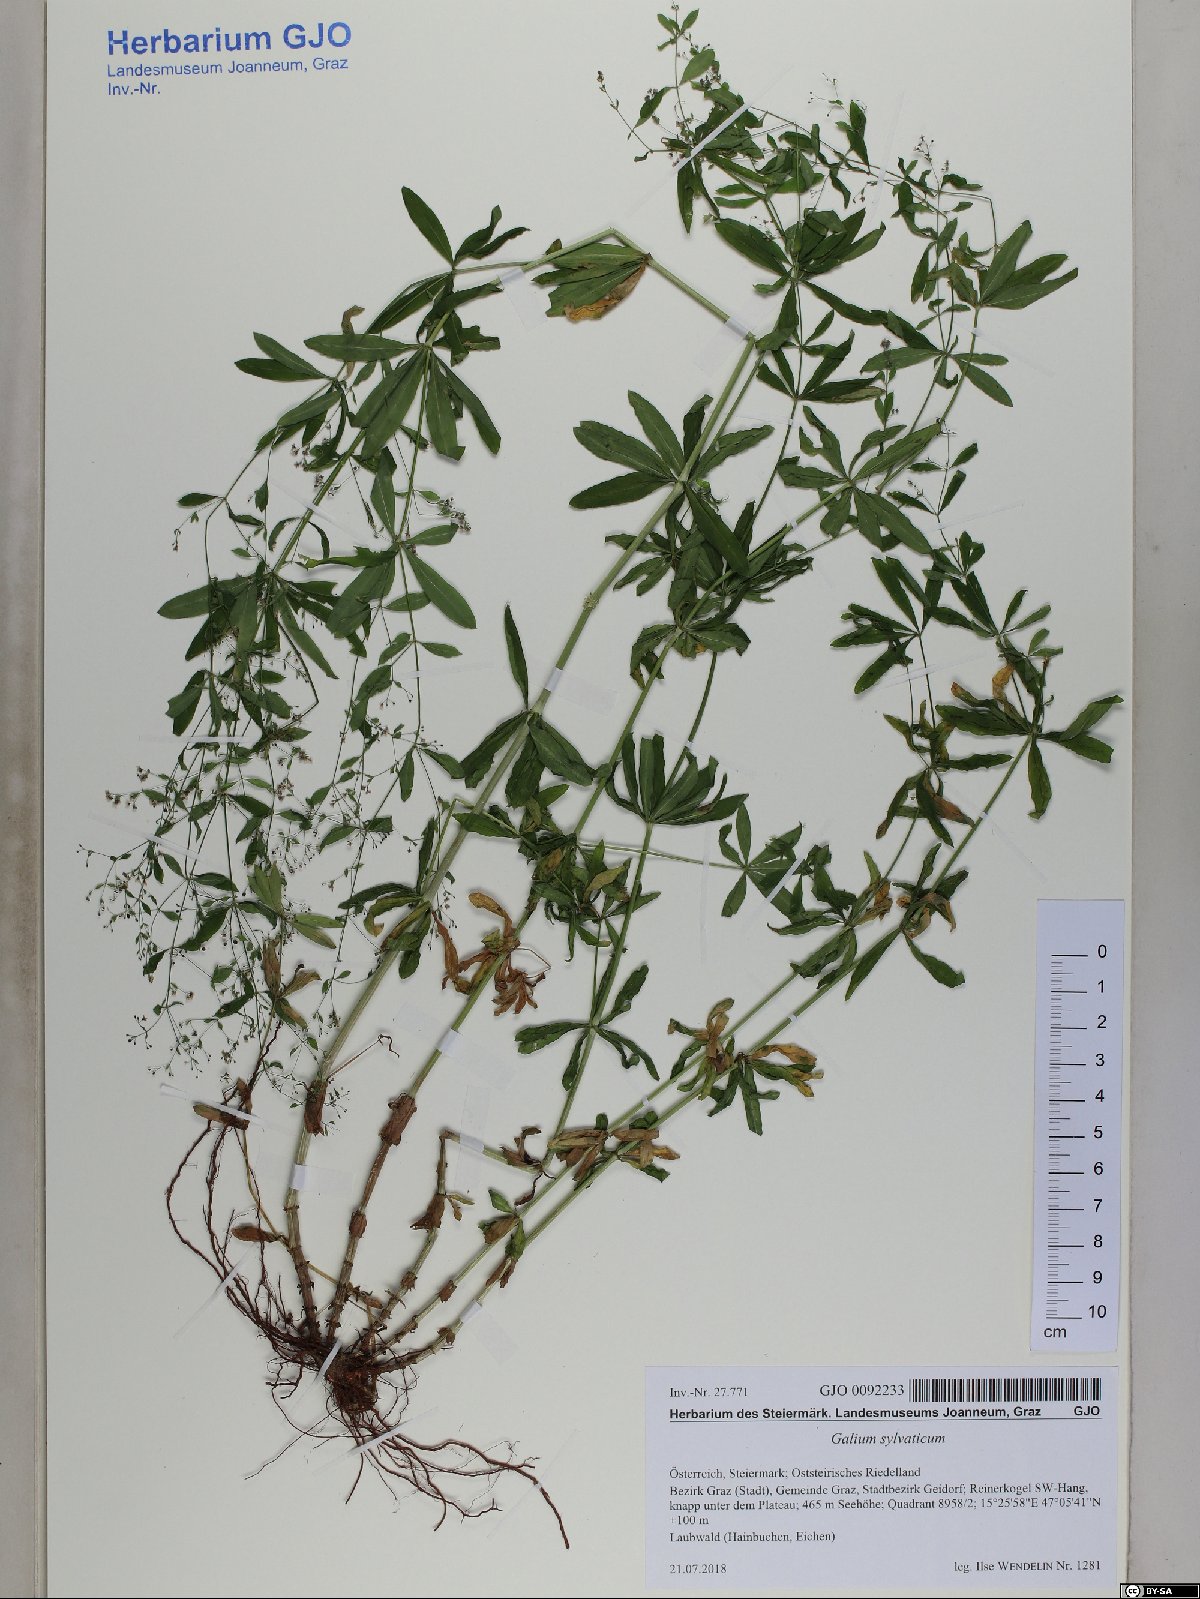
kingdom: Plantae
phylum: Tracheophyta
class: Magnoliopsida
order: Gentianales
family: Rubiaceae
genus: Galium
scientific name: Galium sylvaticum
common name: Wood bedstraw
